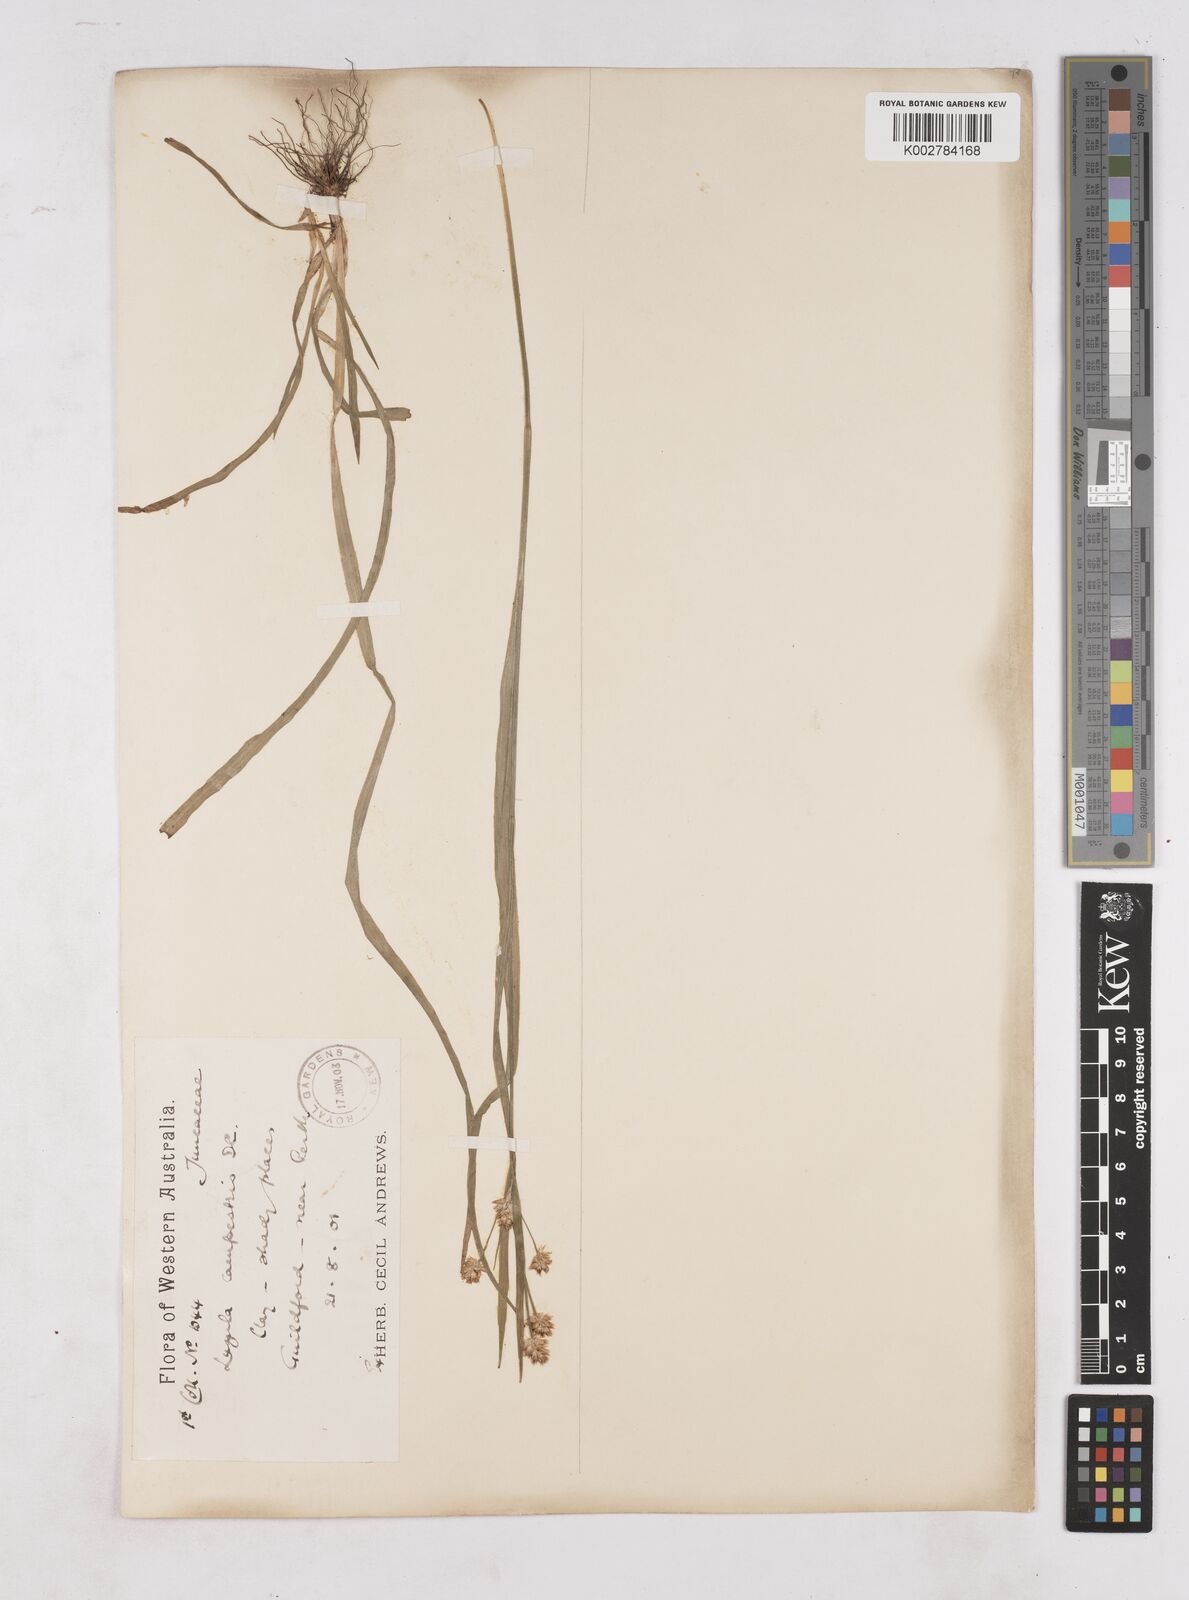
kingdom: Plantae
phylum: Tracheophyta
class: Liliopsida
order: Poales
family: Juncaceae
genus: Luzula
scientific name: Luzula campestris
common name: Field wood-rush
